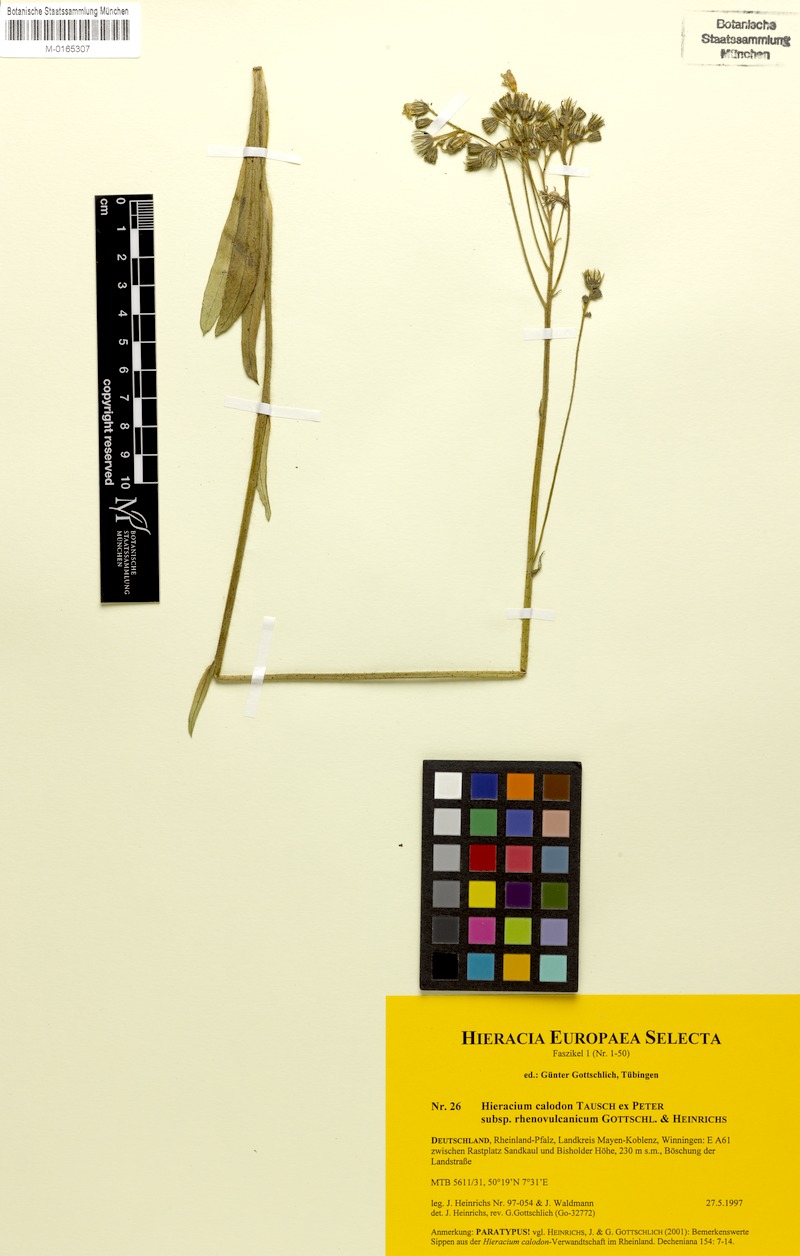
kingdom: Plantae
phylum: Tracheophyta
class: Magnoliopsida
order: Asterales
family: Asteraceae
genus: Pilosella
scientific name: Pilosella calodon
